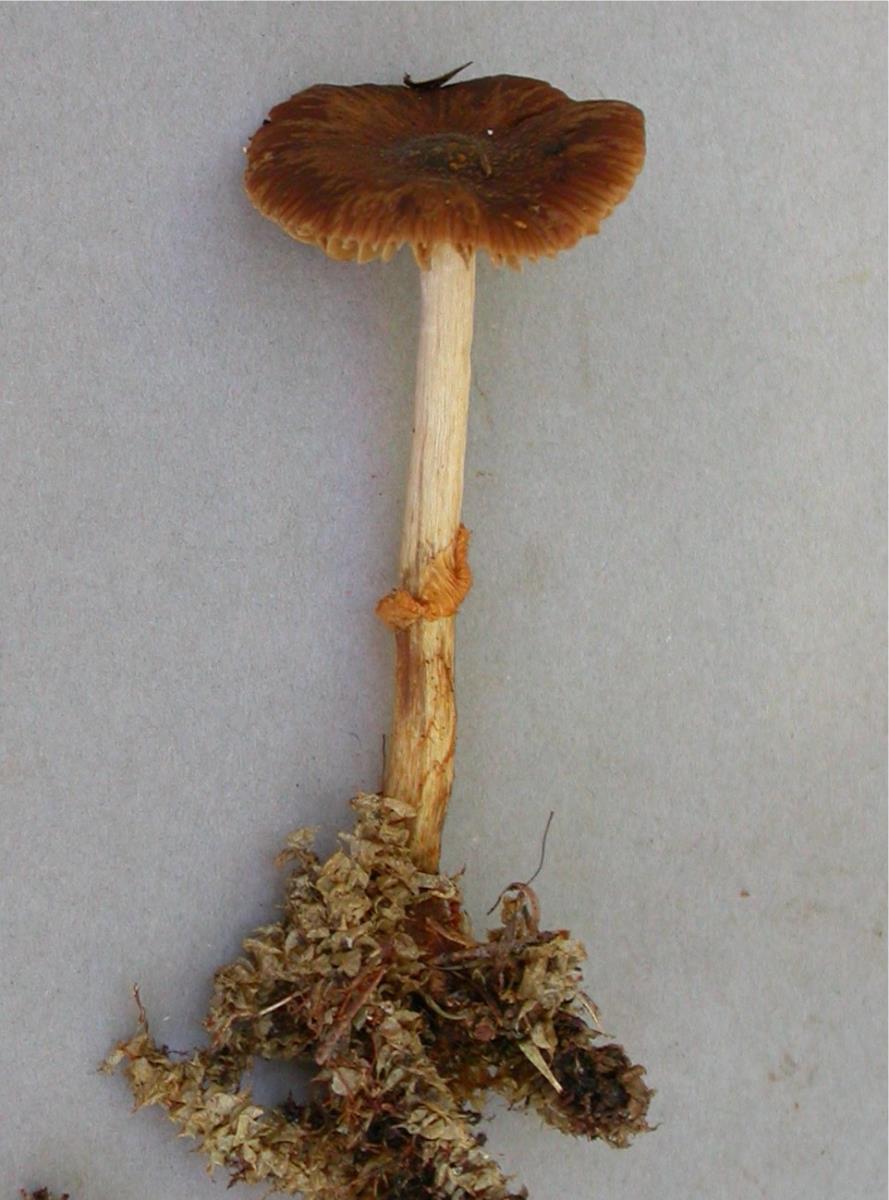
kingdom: Fungi
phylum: Basidiomycota
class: Agaricomycetes
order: Agaricales
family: Bolbitiaceae
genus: Descolea
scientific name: Descolea maculata
